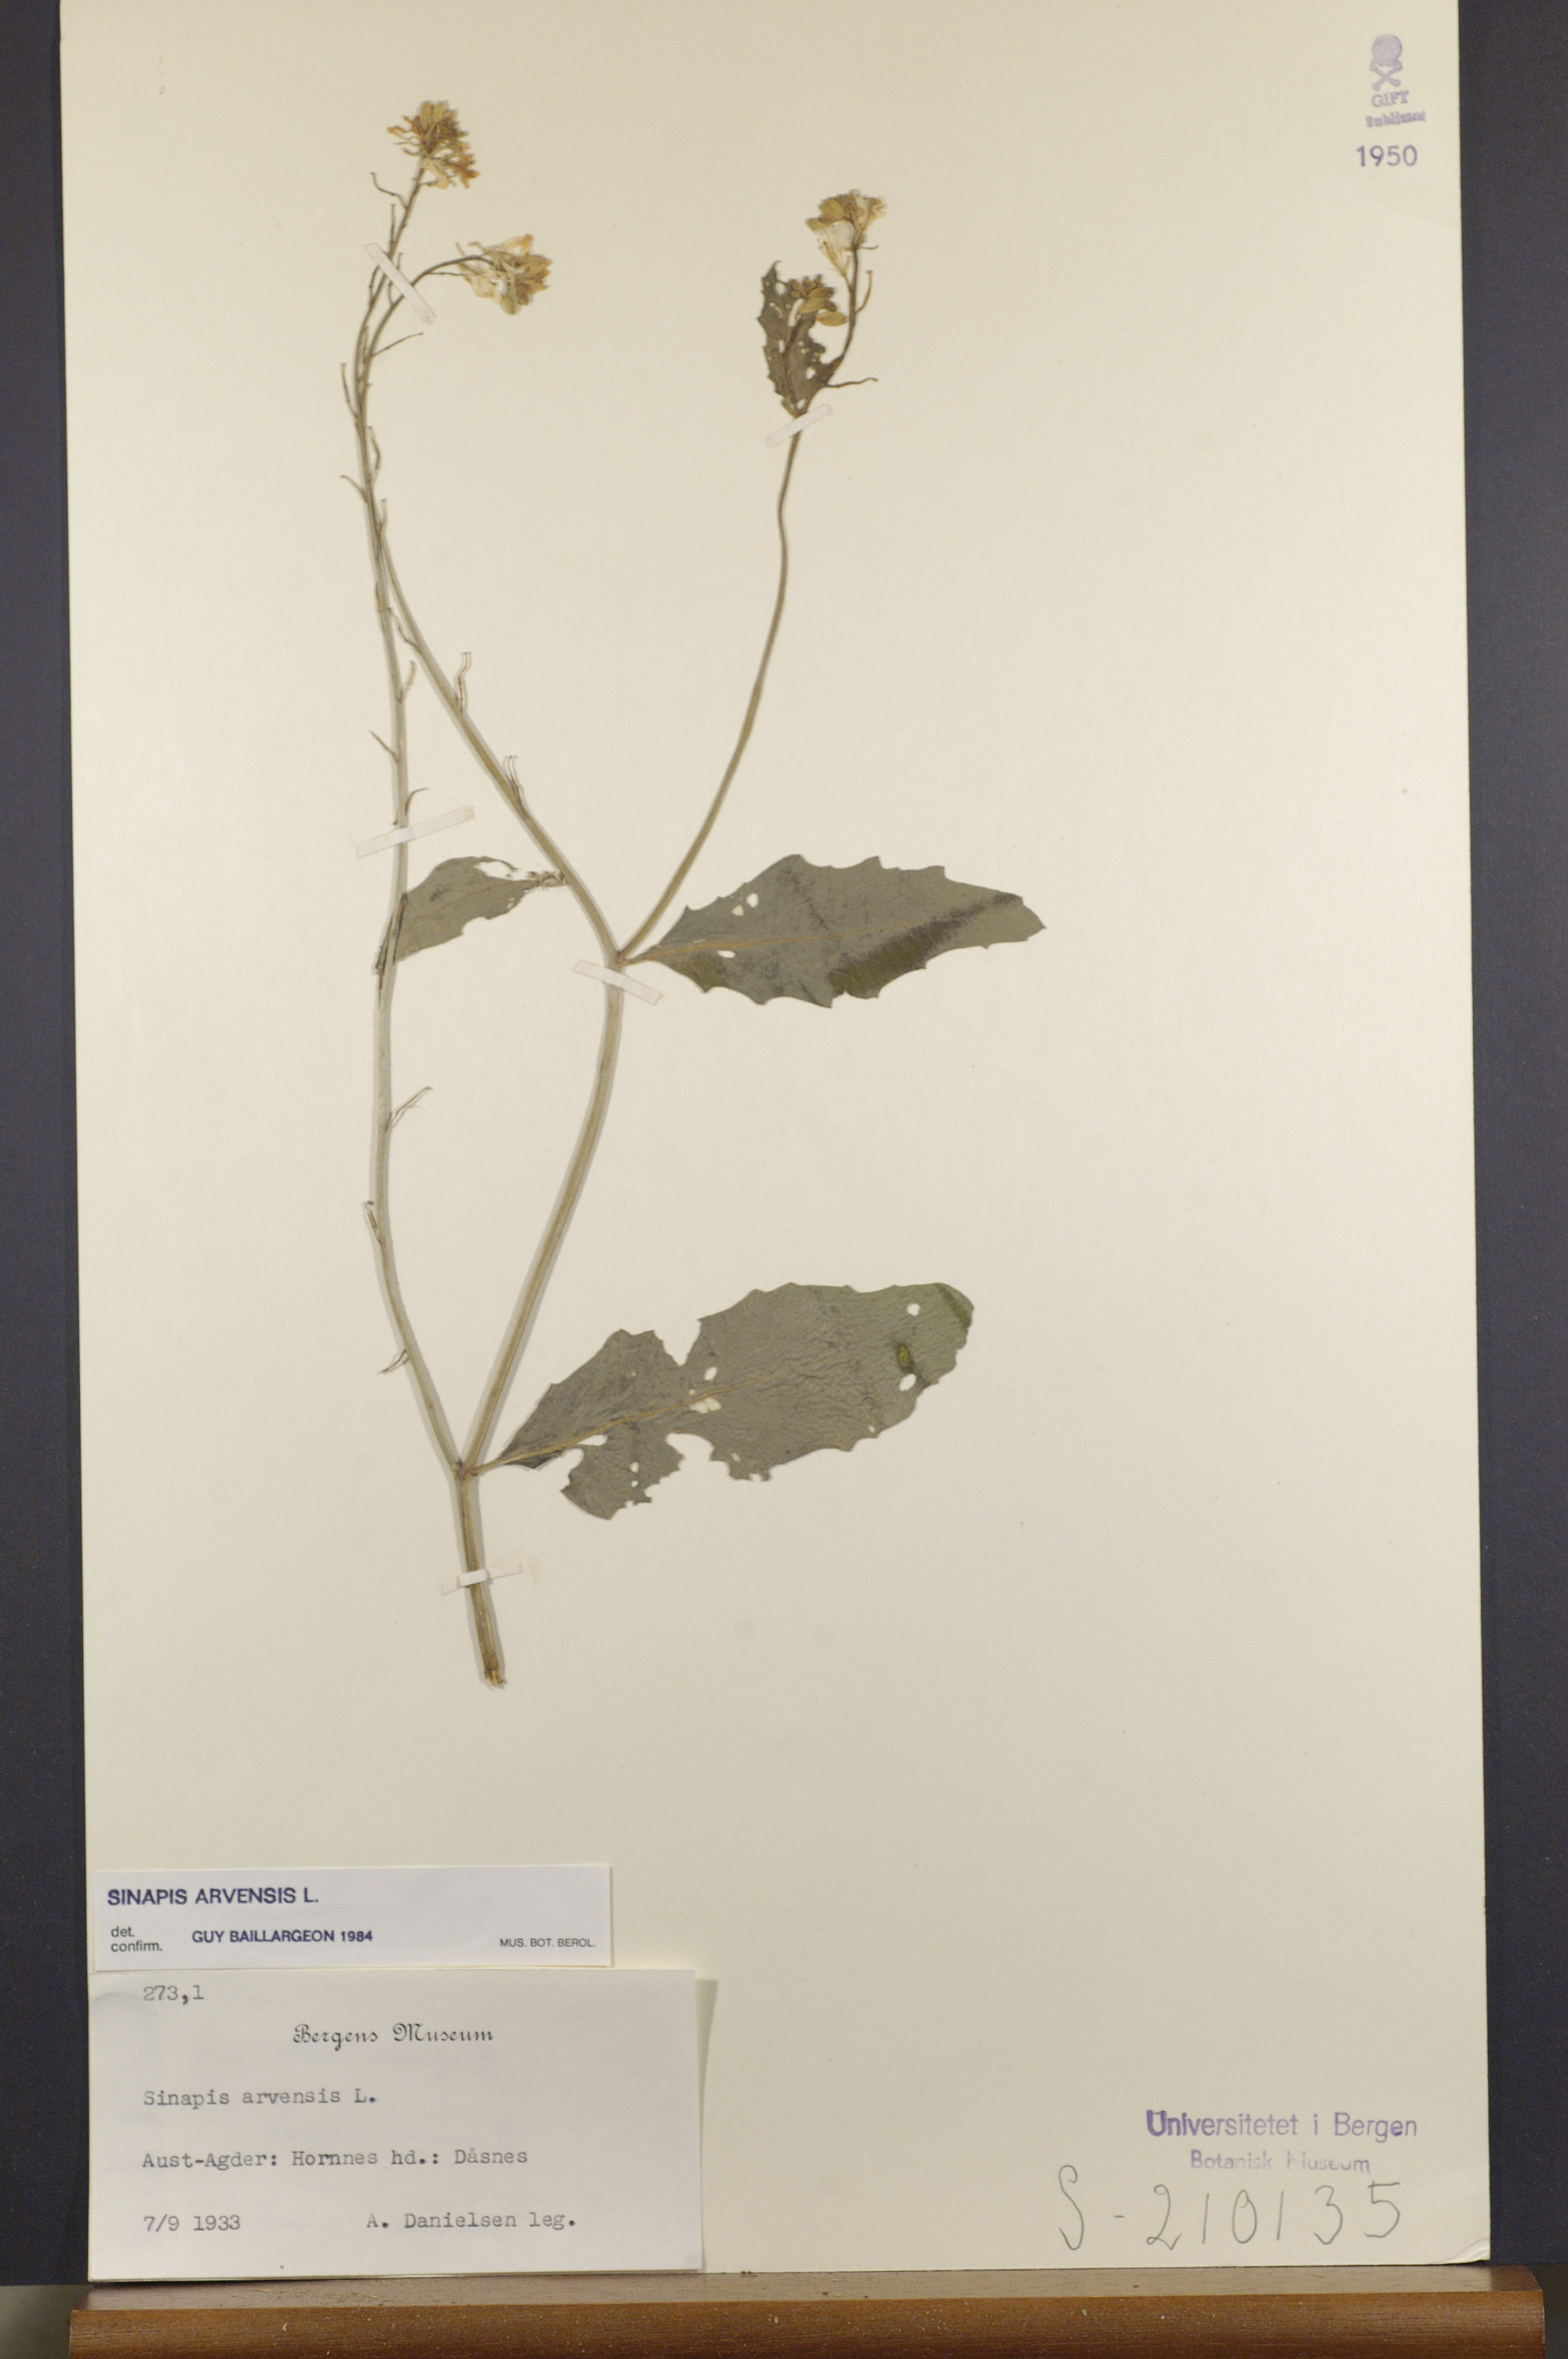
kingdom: Plantae
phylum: Tracheophyta
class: Magnoliopsida
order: Brassicales
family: Brassicaceae
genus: Sinapis
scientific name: Sinapis arvensis
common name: Charlock
